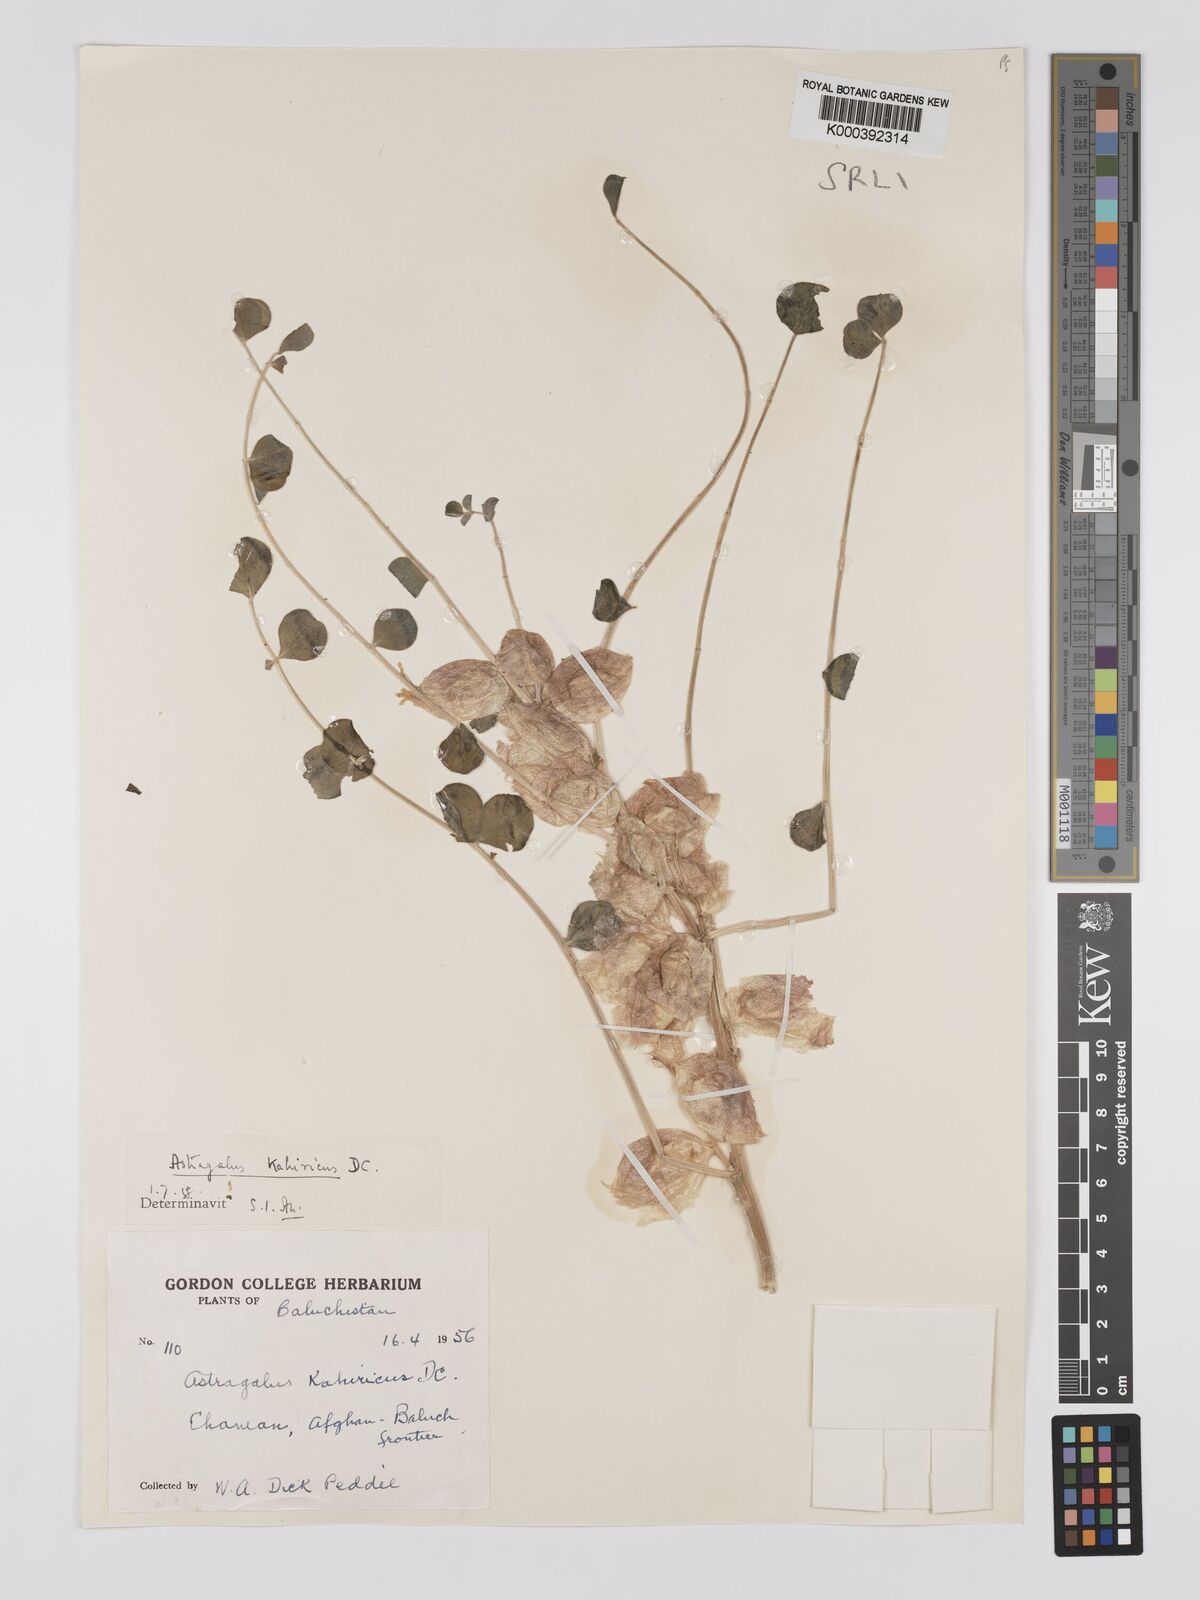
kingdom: Plantae
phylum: Tracheophyta
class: Magnoliopsida
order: Fabales
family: Fabaceae
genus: Astragalus
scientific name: Astragalus kahiricus
